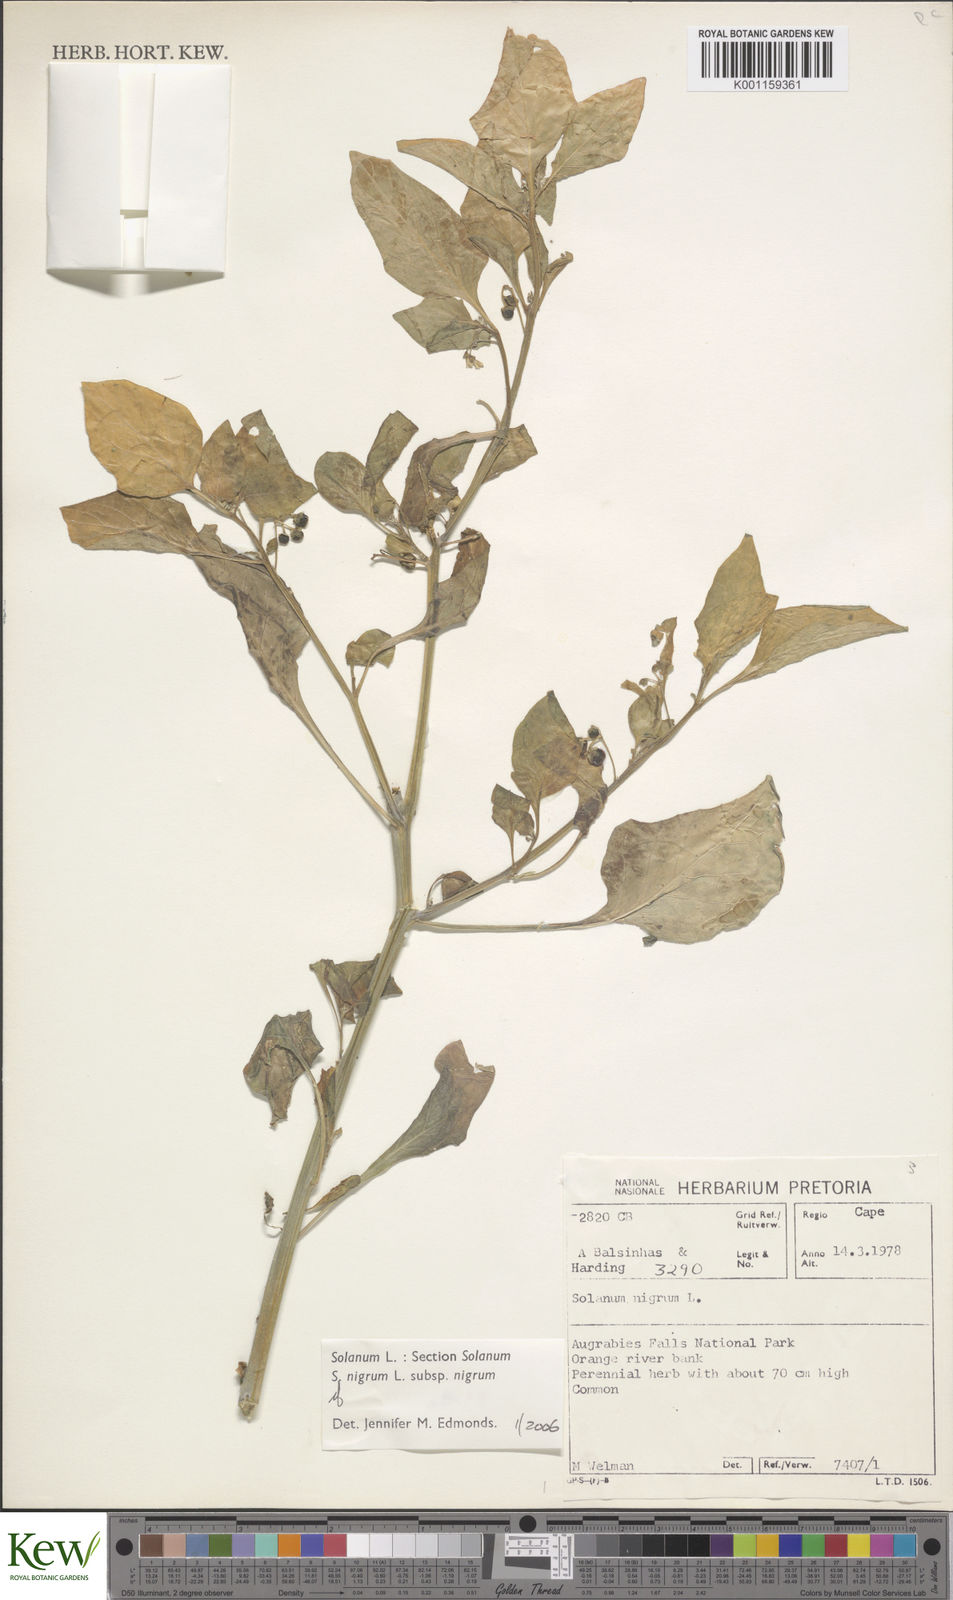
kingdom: Plantae
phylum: Tracheophyta
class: Magnoliopsida
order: Solanales
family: Solanaceae
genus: Solanum
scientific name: Solanum scabrum
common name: Garden-huckleberry
